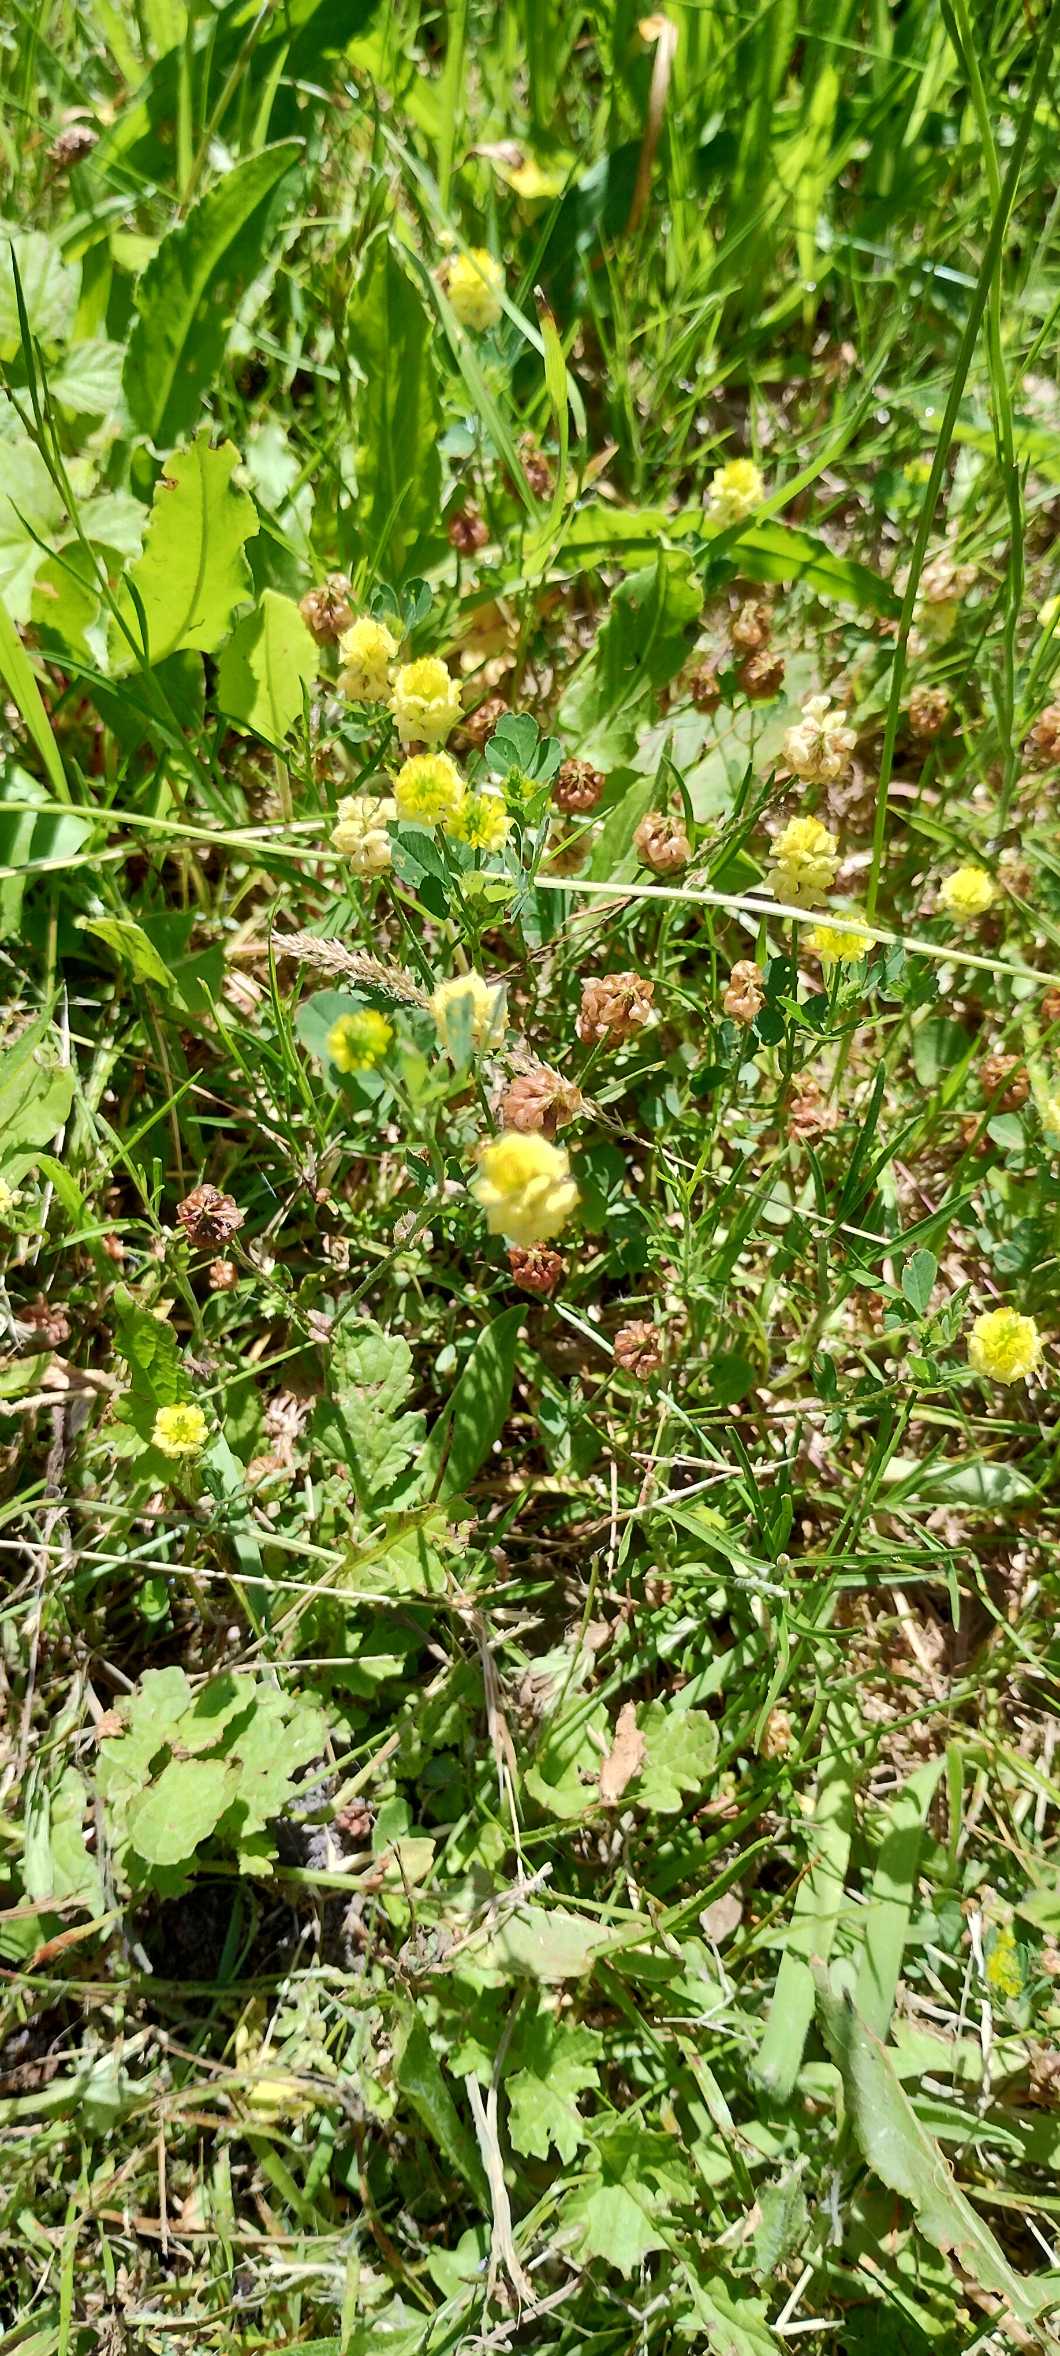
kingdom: Plantae
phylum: Tracheophyta
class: Magnoliopsida
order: Fabales
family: Fabaceae
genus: Trifolium
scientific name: Trifolium campestre
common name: Gul kløver
